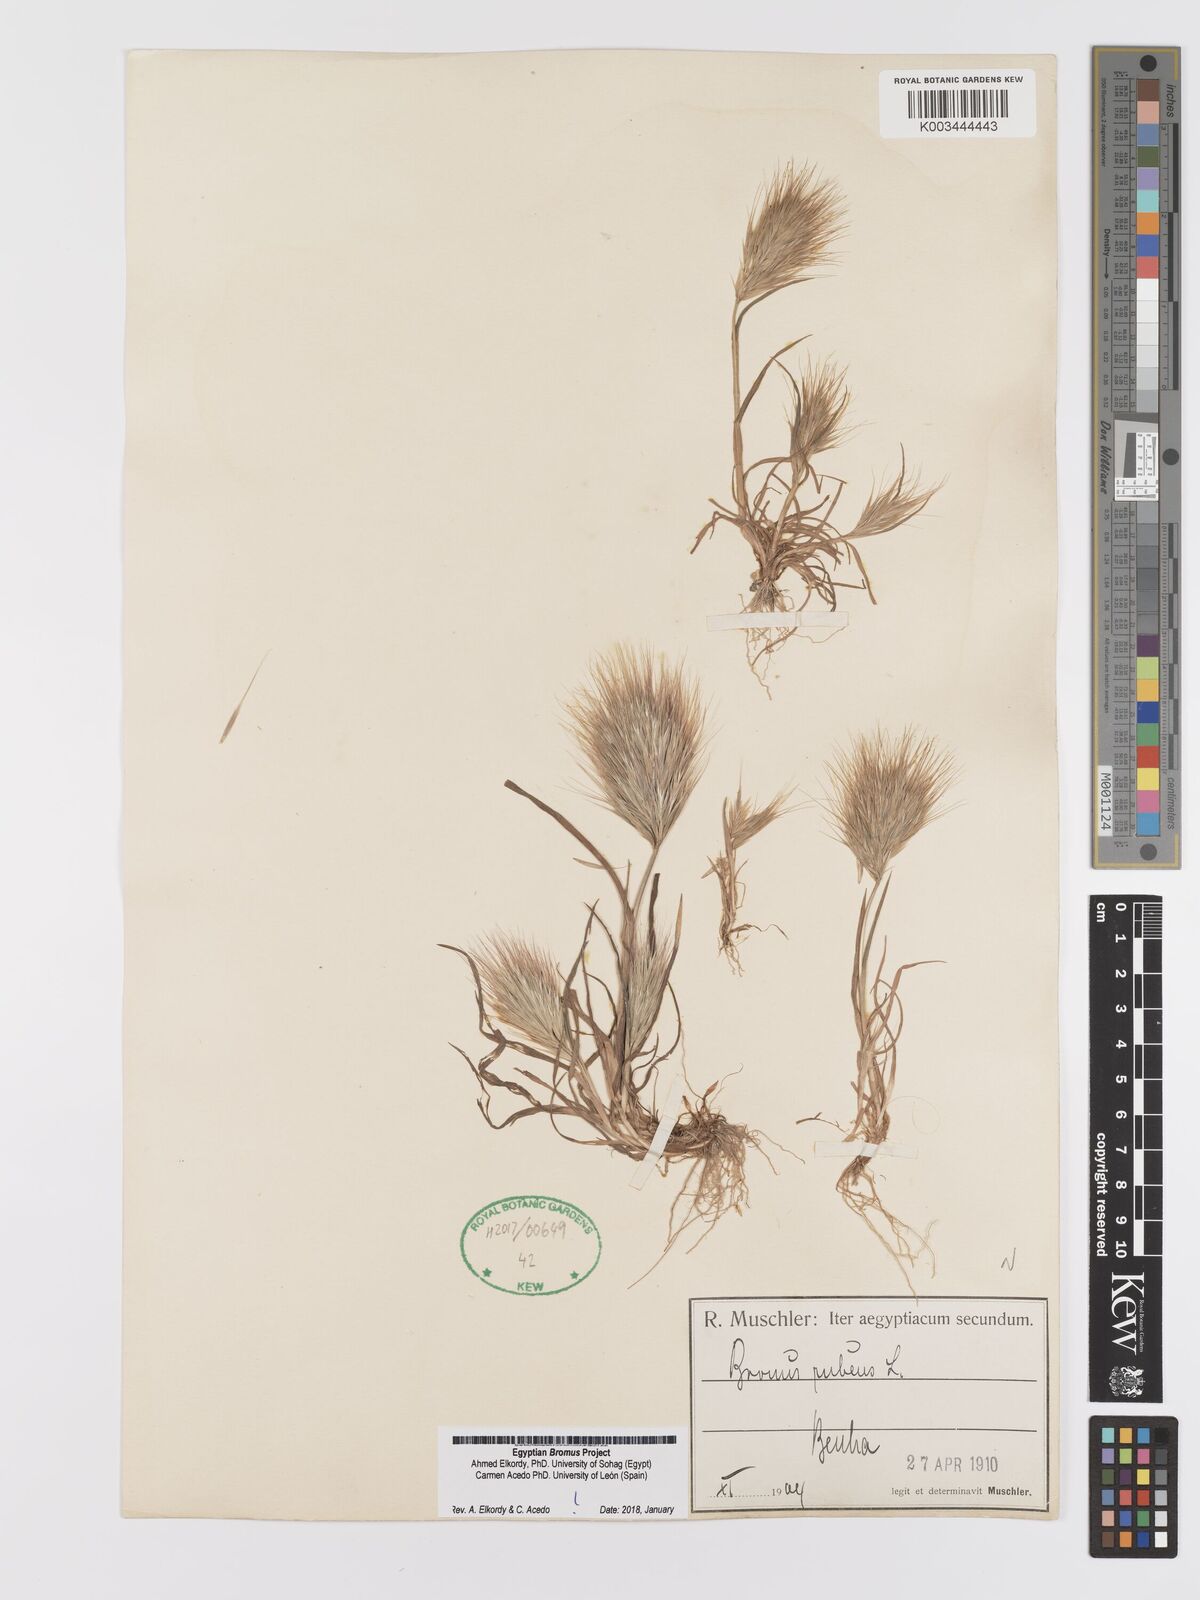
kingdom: Plantae
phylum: Tracheophyta
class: Liliopsida
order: Poales
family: Poaceae
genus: Bromus
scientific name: Bromus rubens
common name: Red brome
